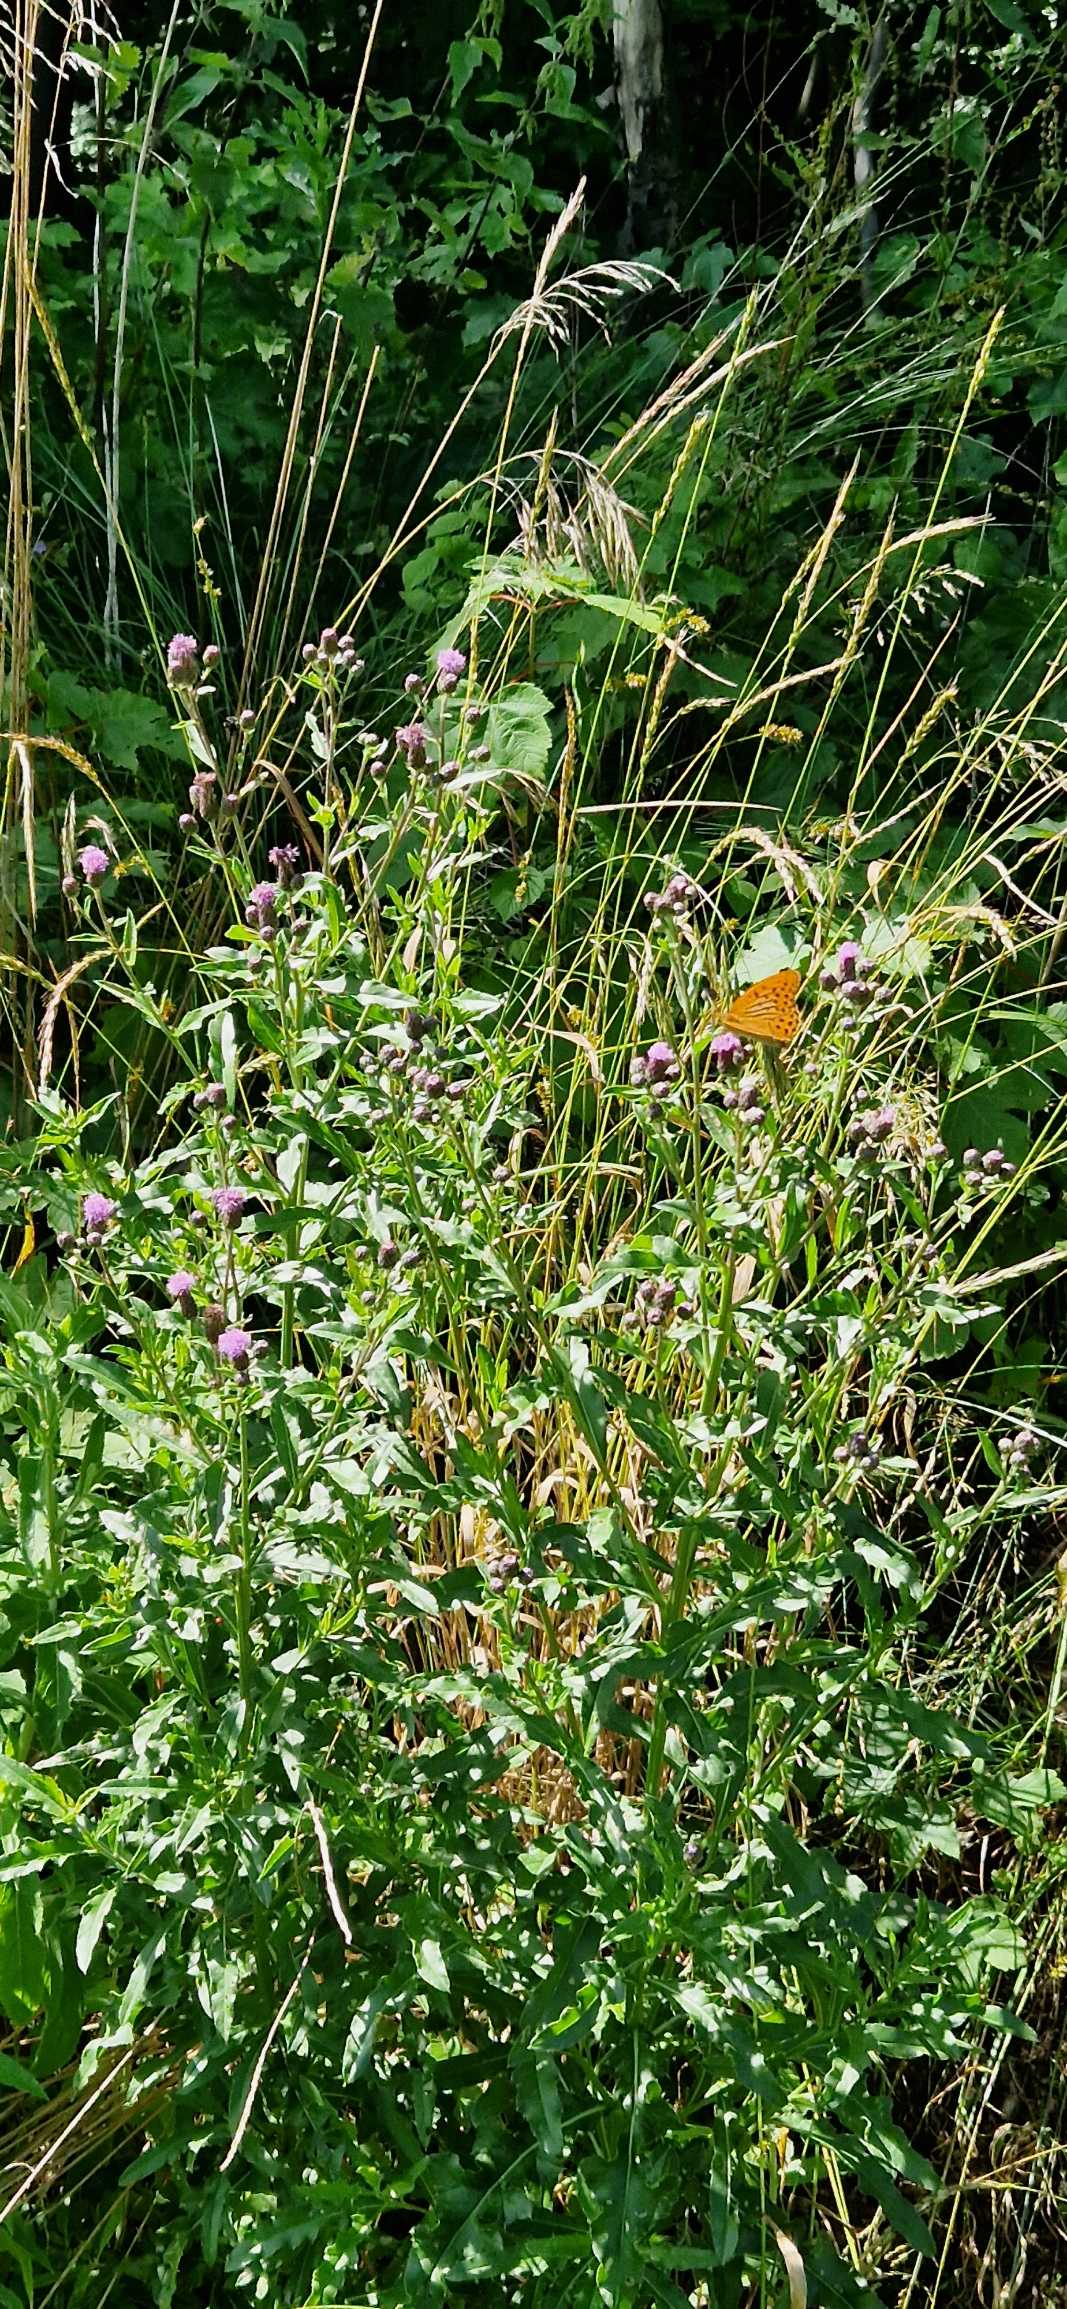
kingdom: Animalia
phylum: Arthropoda
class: Insecta
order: Lepidoptera
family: Nymphalidae
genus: Argynnis
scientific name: Argynnis paphia
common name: Kejserkåbe
